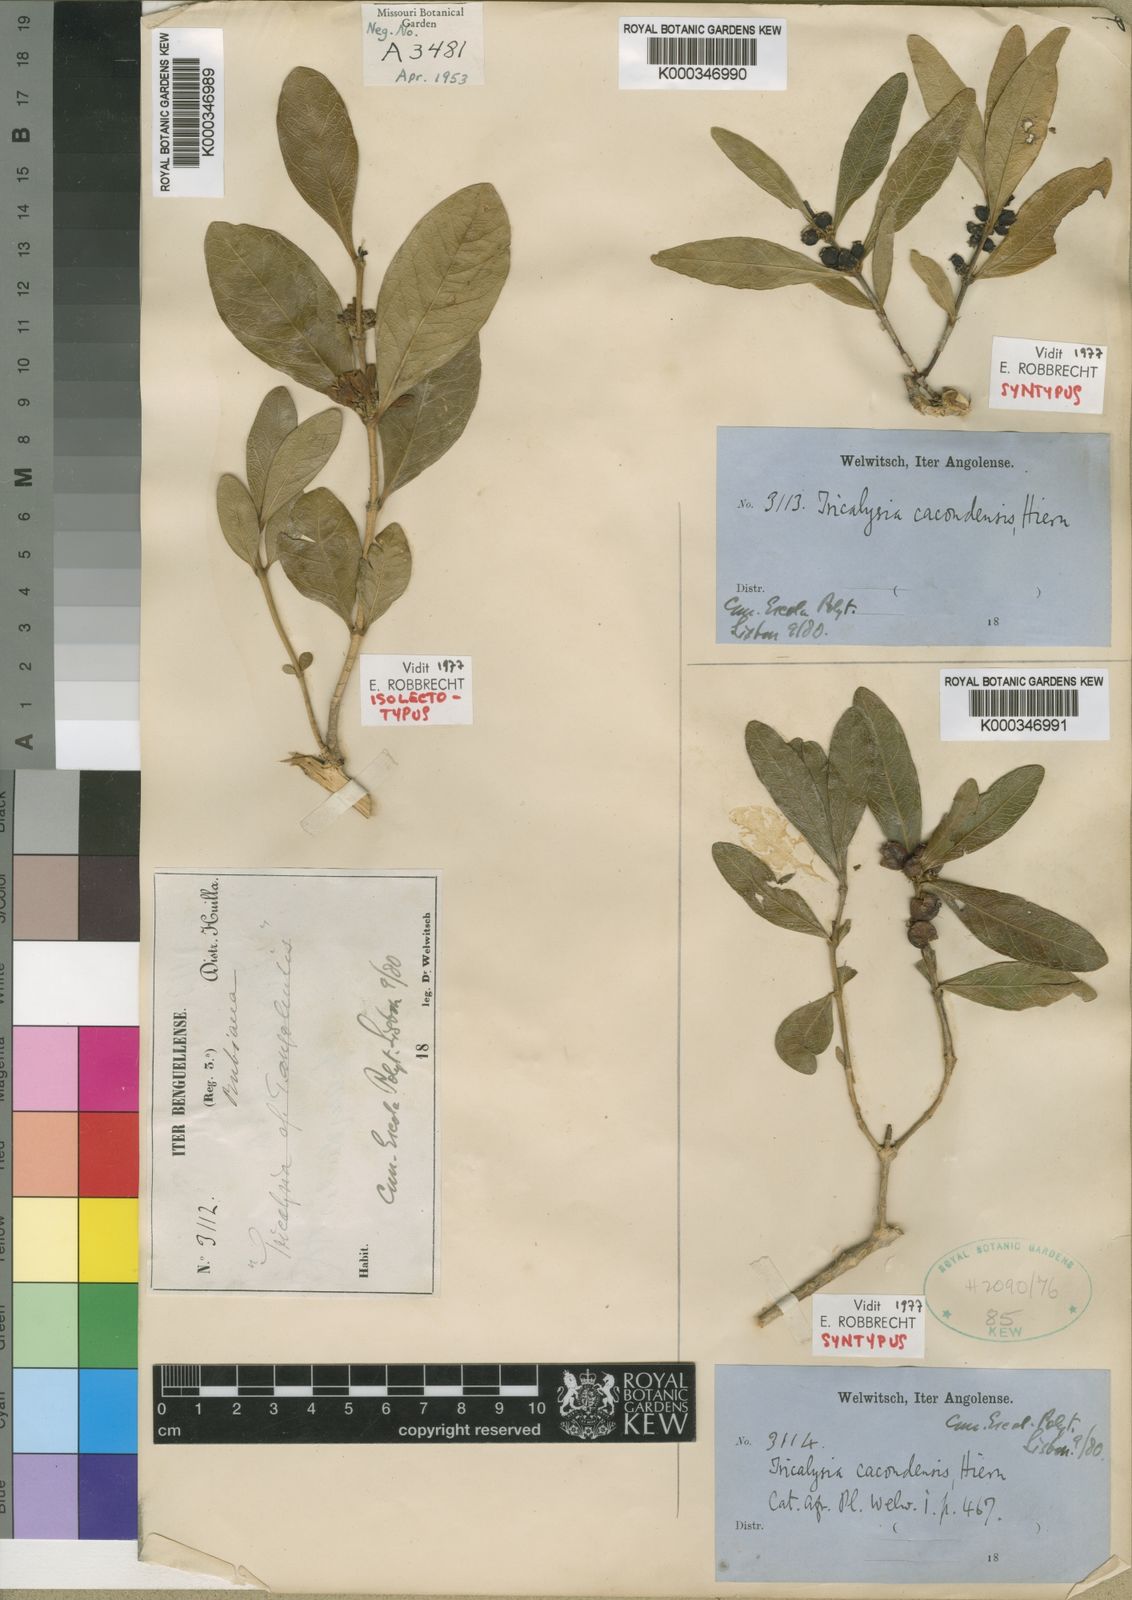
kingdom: Plantae
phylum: Tracheophyta
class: Magnoliopsida
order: Gentianales
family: Rubiaceae
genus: Empogona
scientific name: Empogona cacondensis
